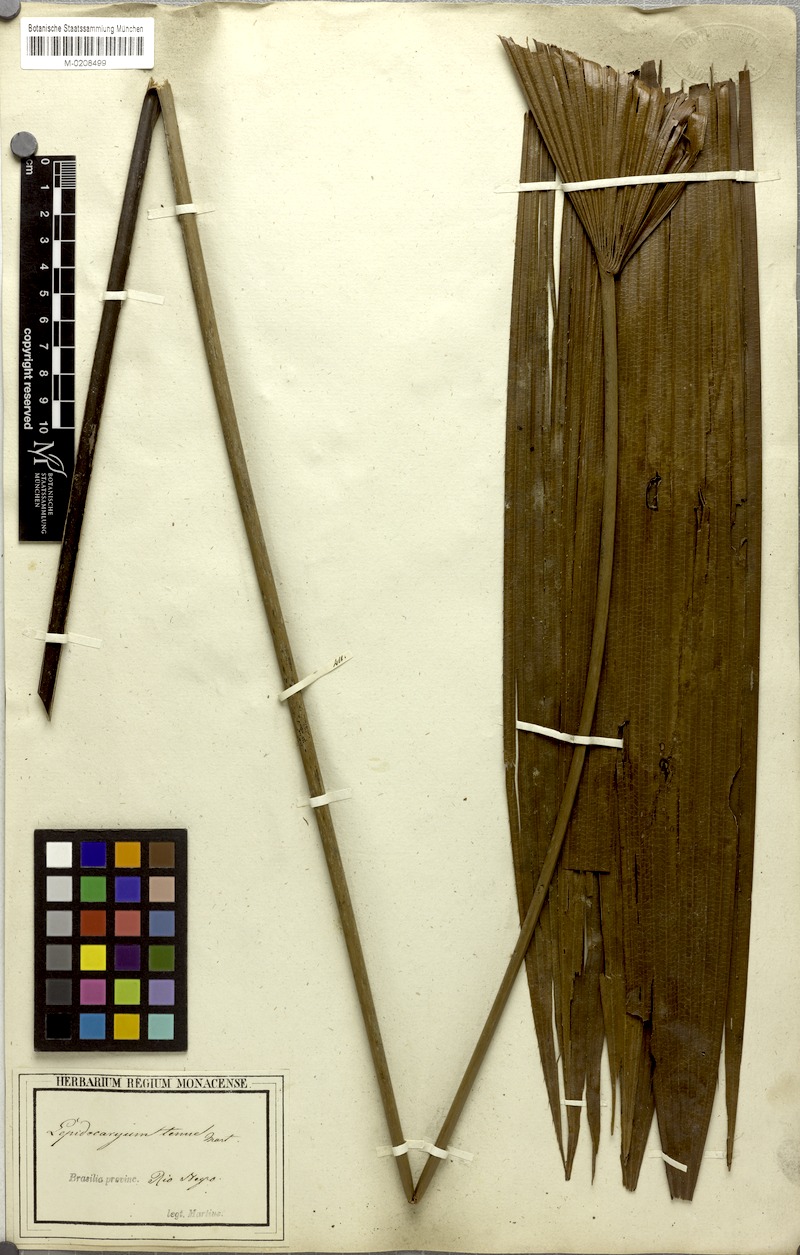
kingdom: Plantae
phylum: Tracheophyta
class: Liliopsida
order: Arecales
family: Arecaceae
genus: Lepidocaryum
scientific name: Lepidocaryum tenue
